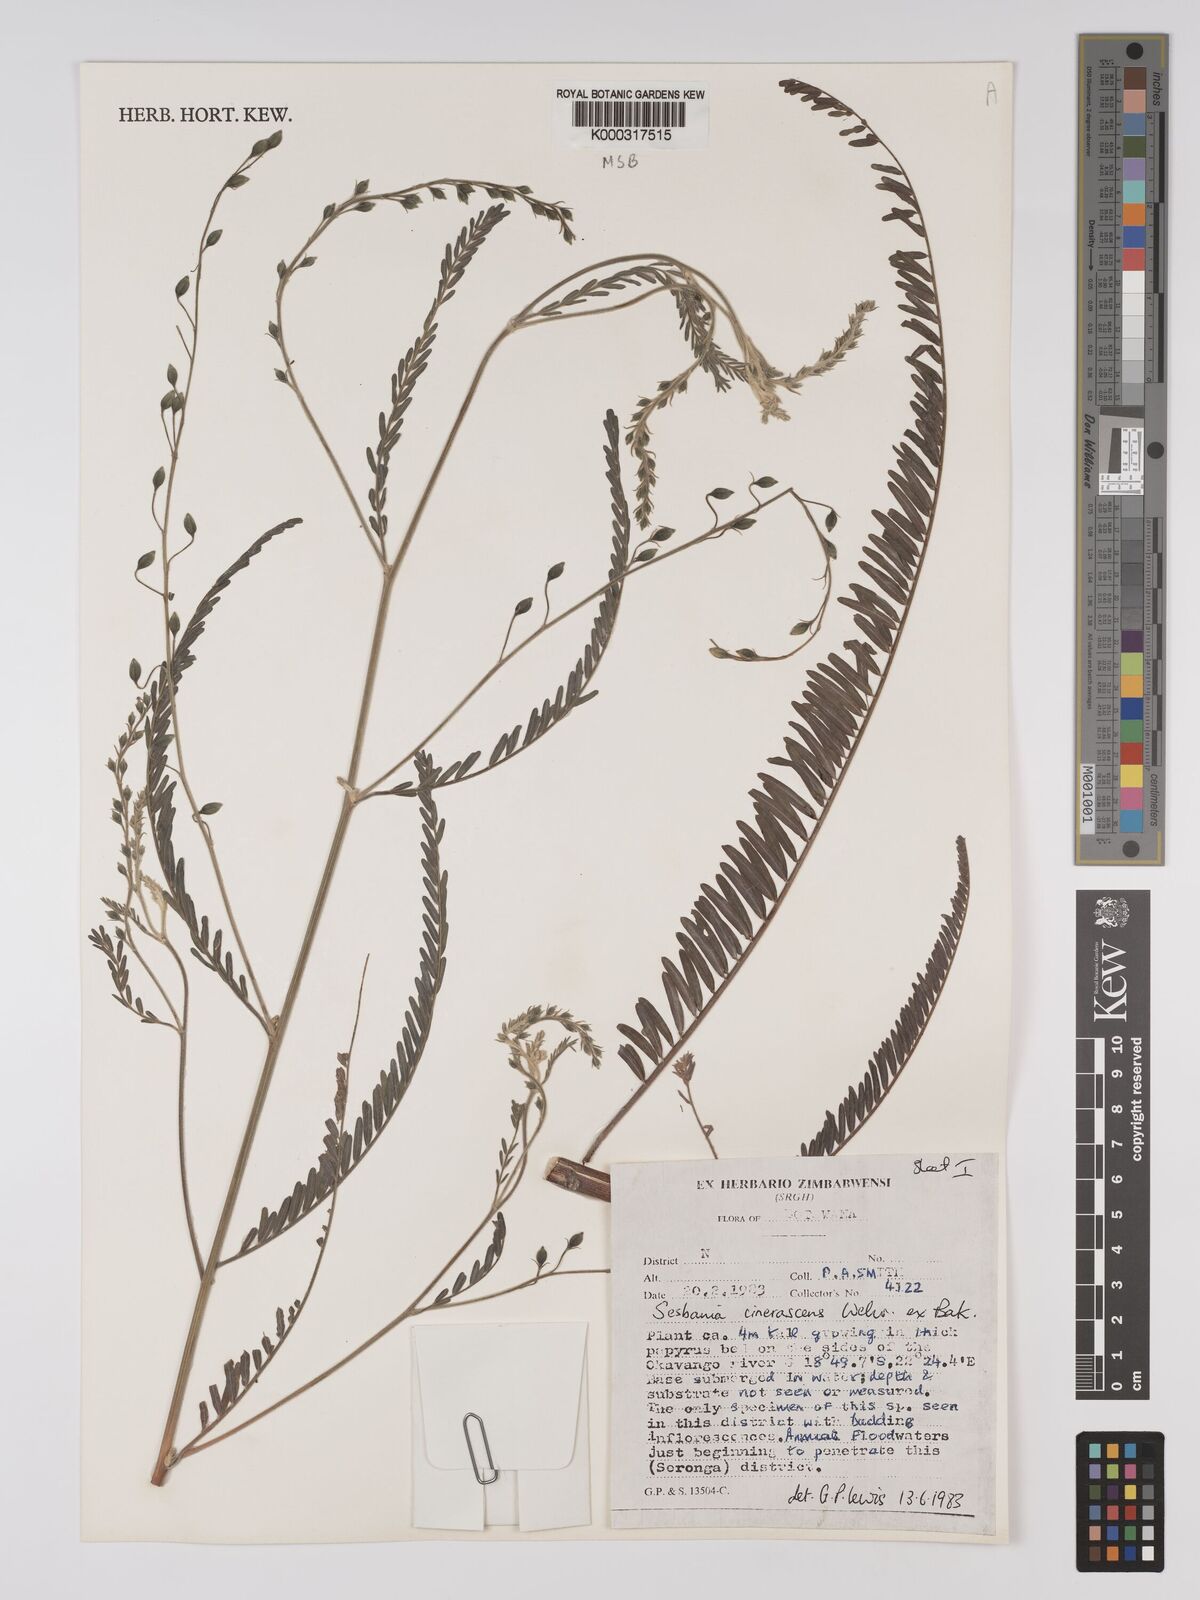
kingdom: Plantae
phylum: Tracheophyta
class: Magnoliopsida
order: Fabales
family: Fabaceae
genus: Sesbania
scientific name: Sesbania cinerascens
